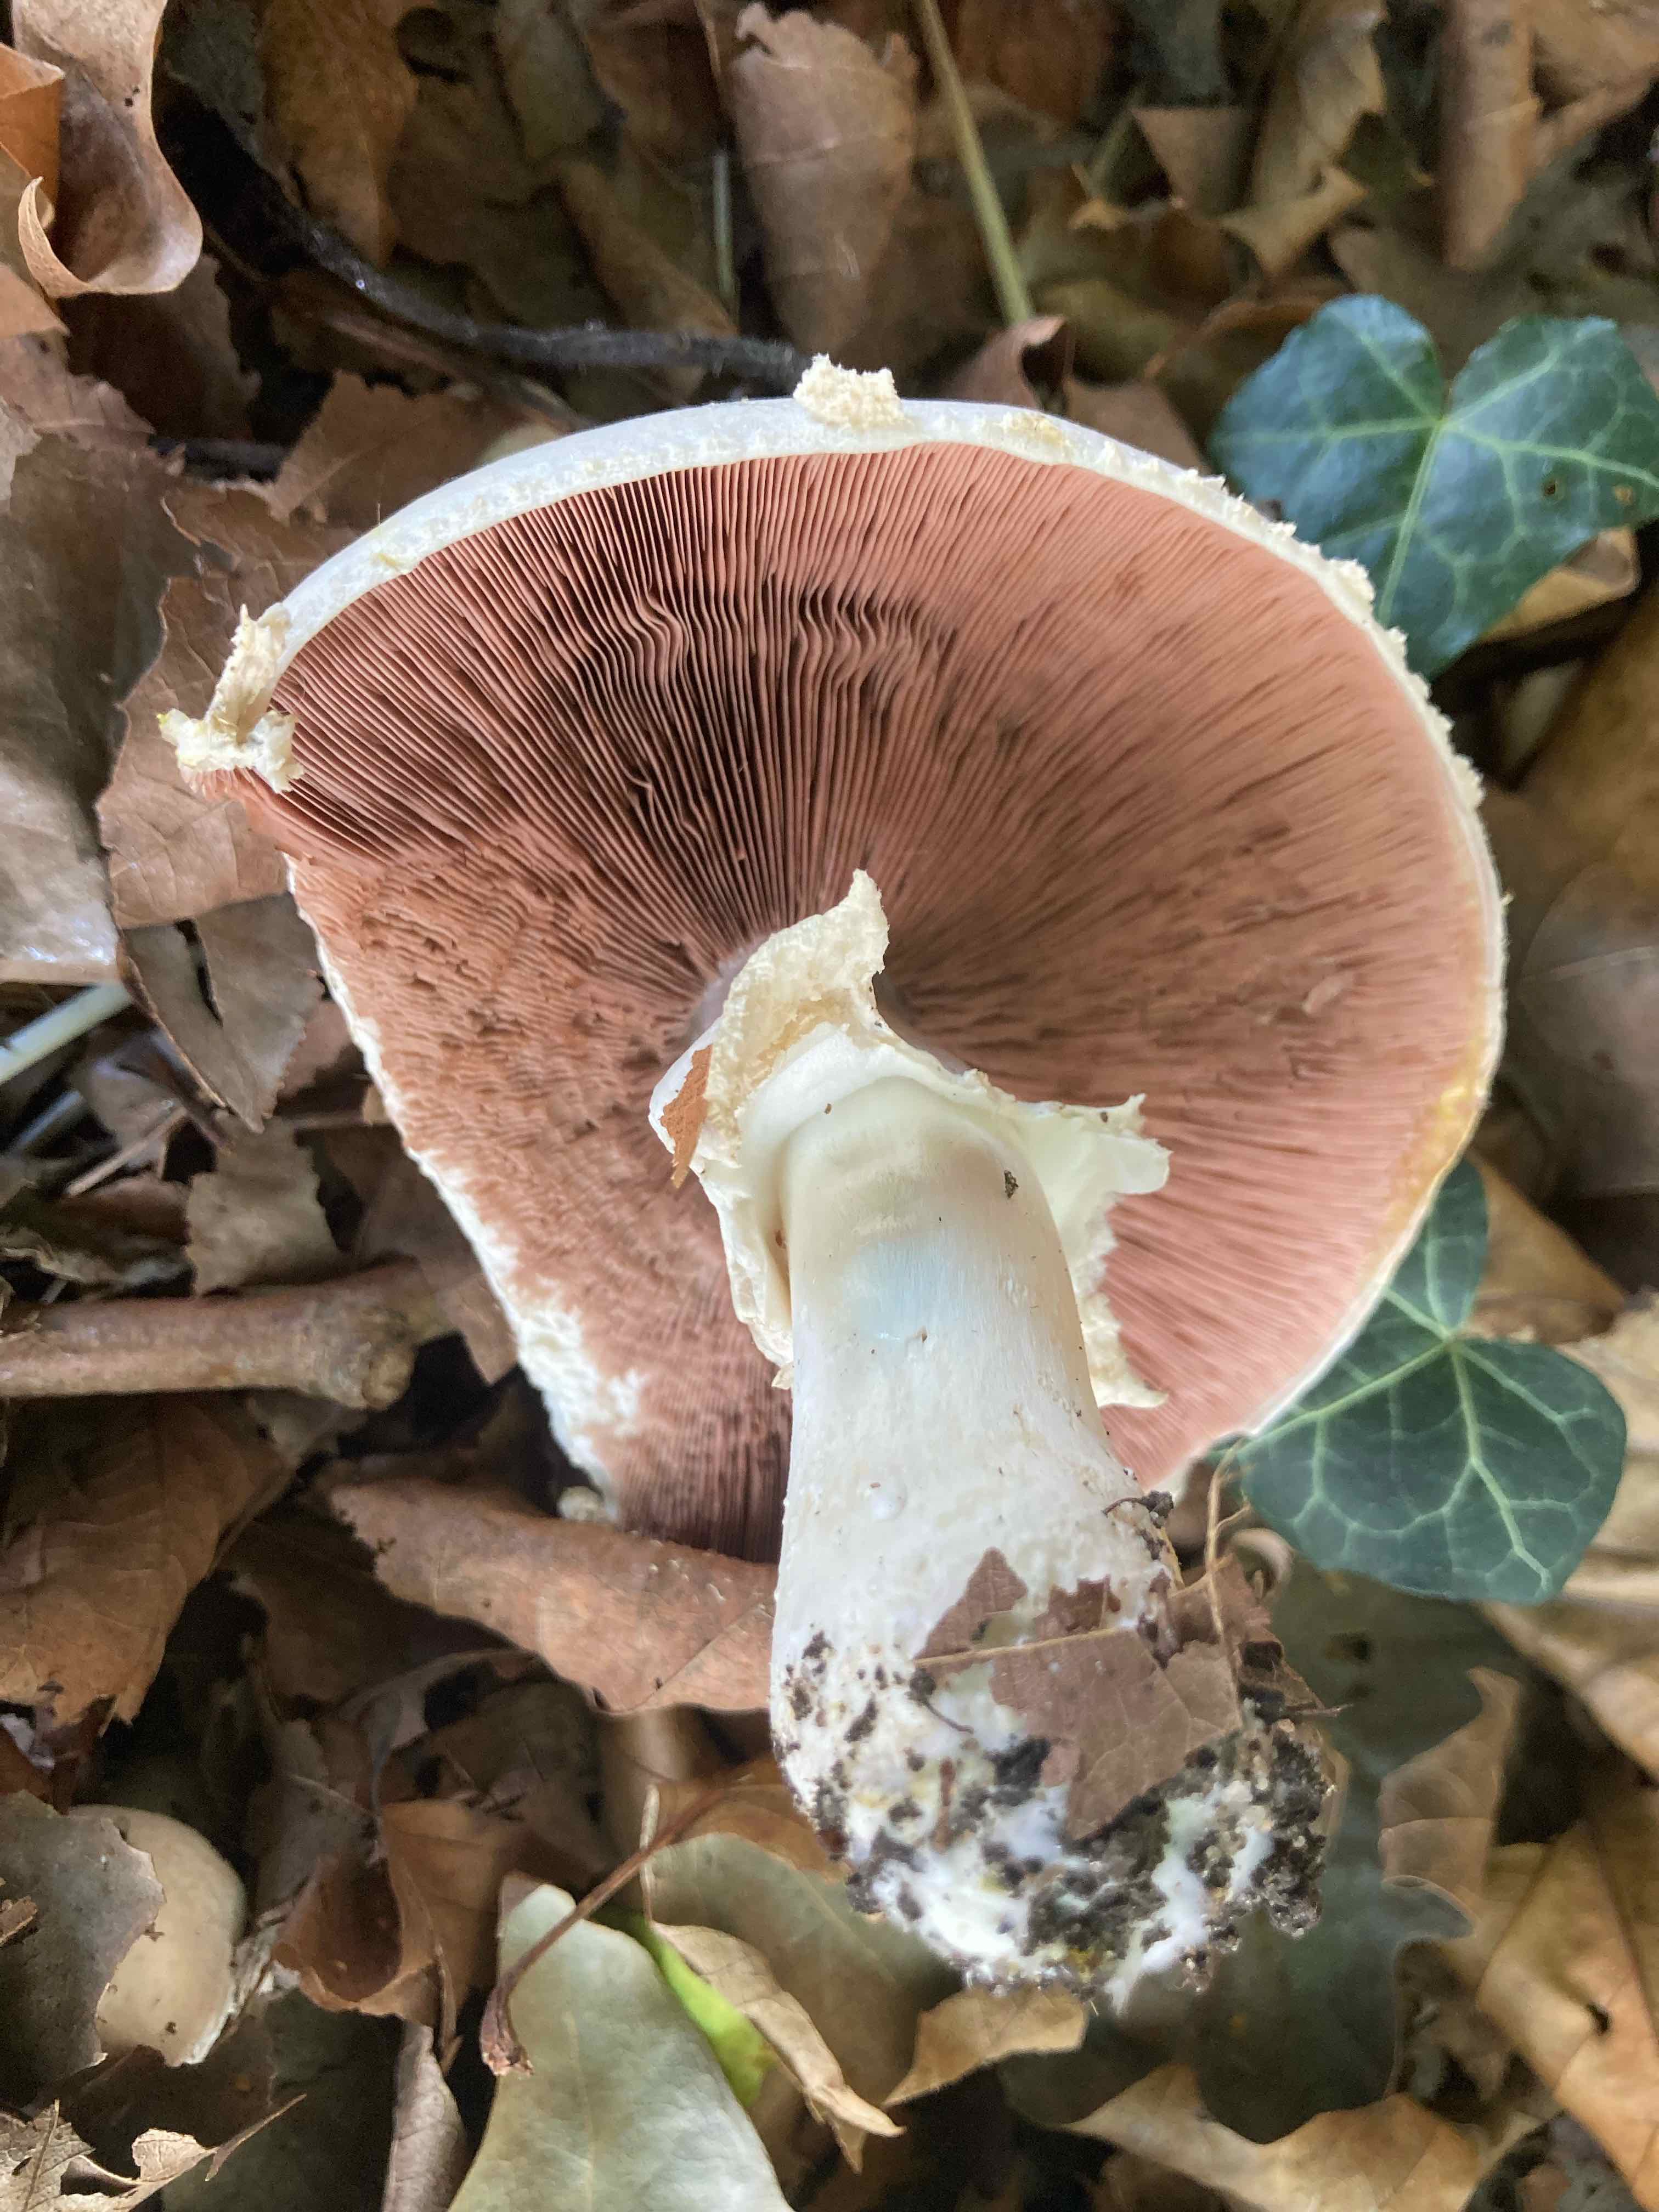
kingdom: Fungi
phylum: Basidiomycota
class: Agaricomycetes
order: Agaricales
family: Agaricaceae
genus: Agaricus
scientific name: Agaricus xanthodermus
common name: karbol-champignon
